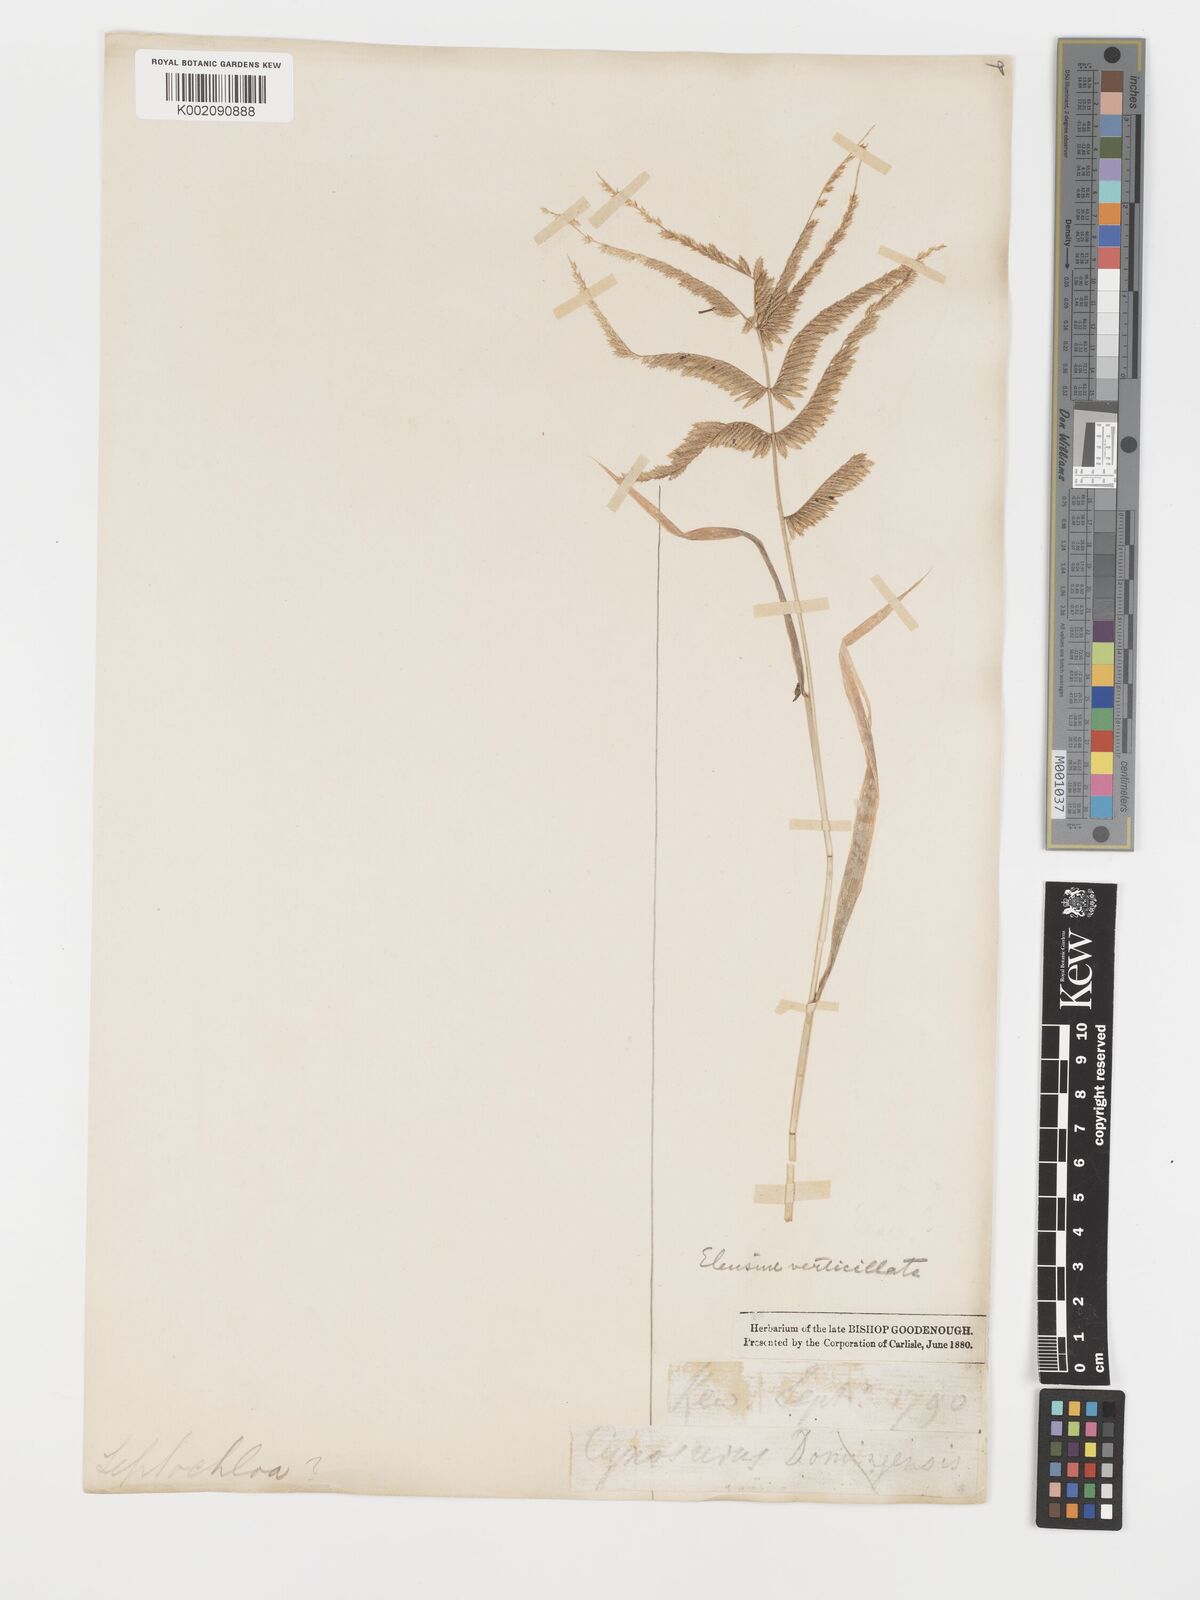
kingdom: Plantae
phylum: Tracheophyta
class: Liliopsida
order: Poales
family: Poaceae
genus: Acrachne
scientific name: Acrachne racemosa
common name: Goosegrass
